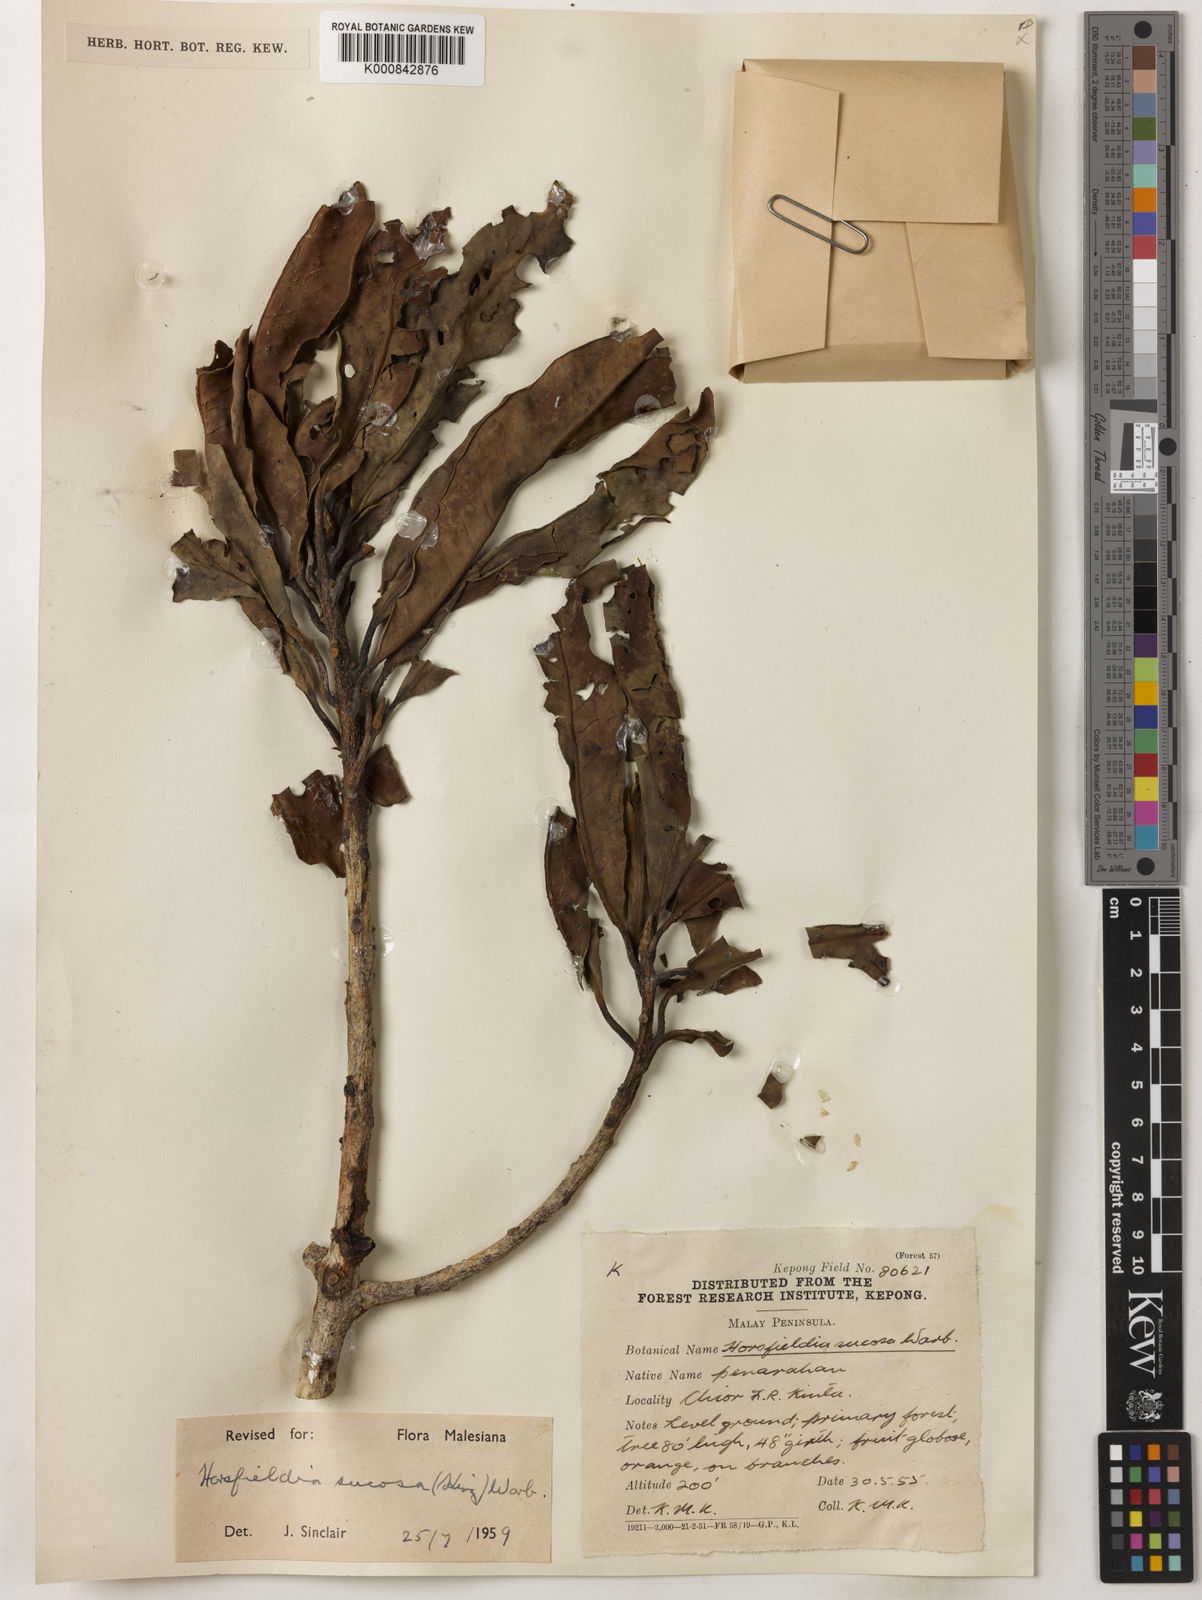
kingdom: Plantae
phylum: Tracheophyta
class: Magnoliopsida
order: Magnoliales
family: Myristicaceae
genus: Horsfieldia
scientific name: Horsfieldia sucosa
